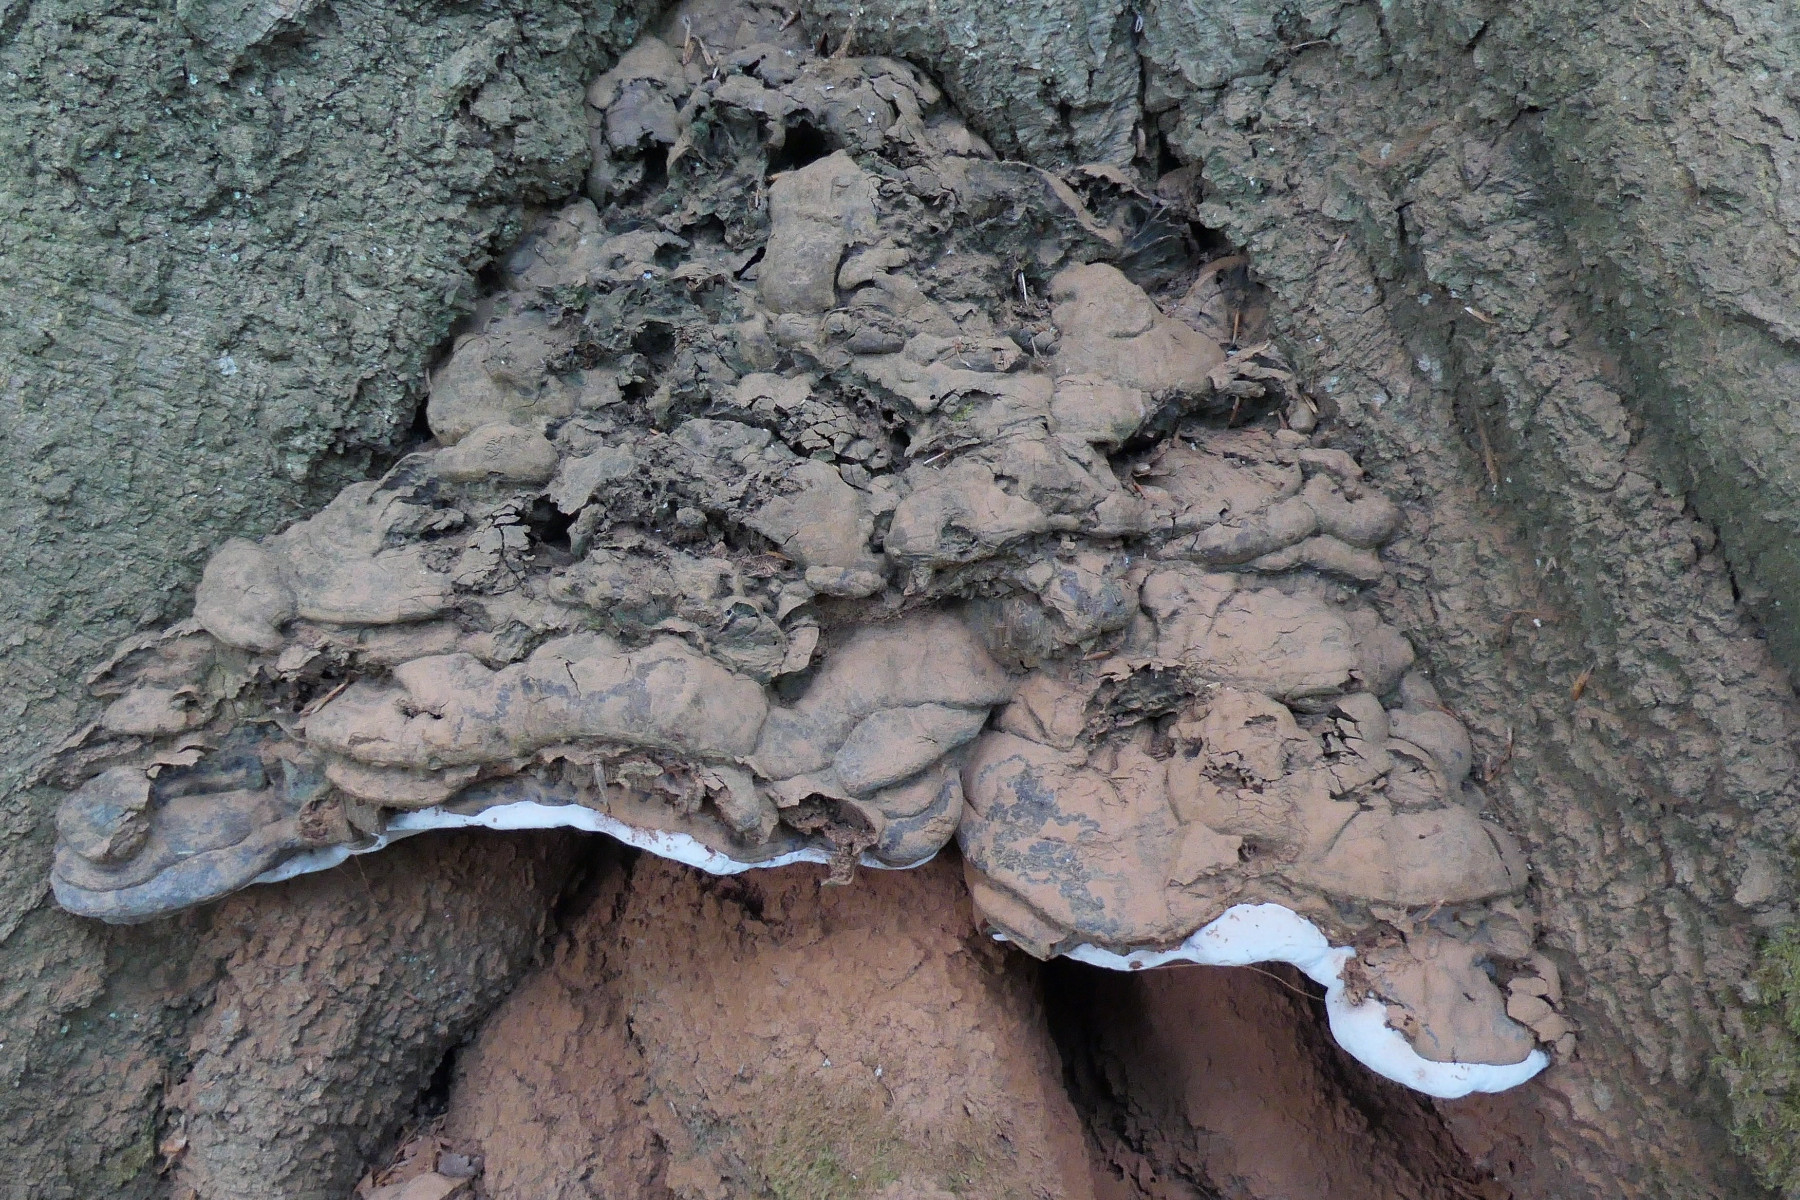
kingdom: Fungi
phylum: Basidiomycota
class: Agaricomycetes
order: Polyporales
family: Polyporaceae
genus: Ganoderma
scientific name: Ganoderma pfeifferi
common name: kobberrød lakporesvamp
